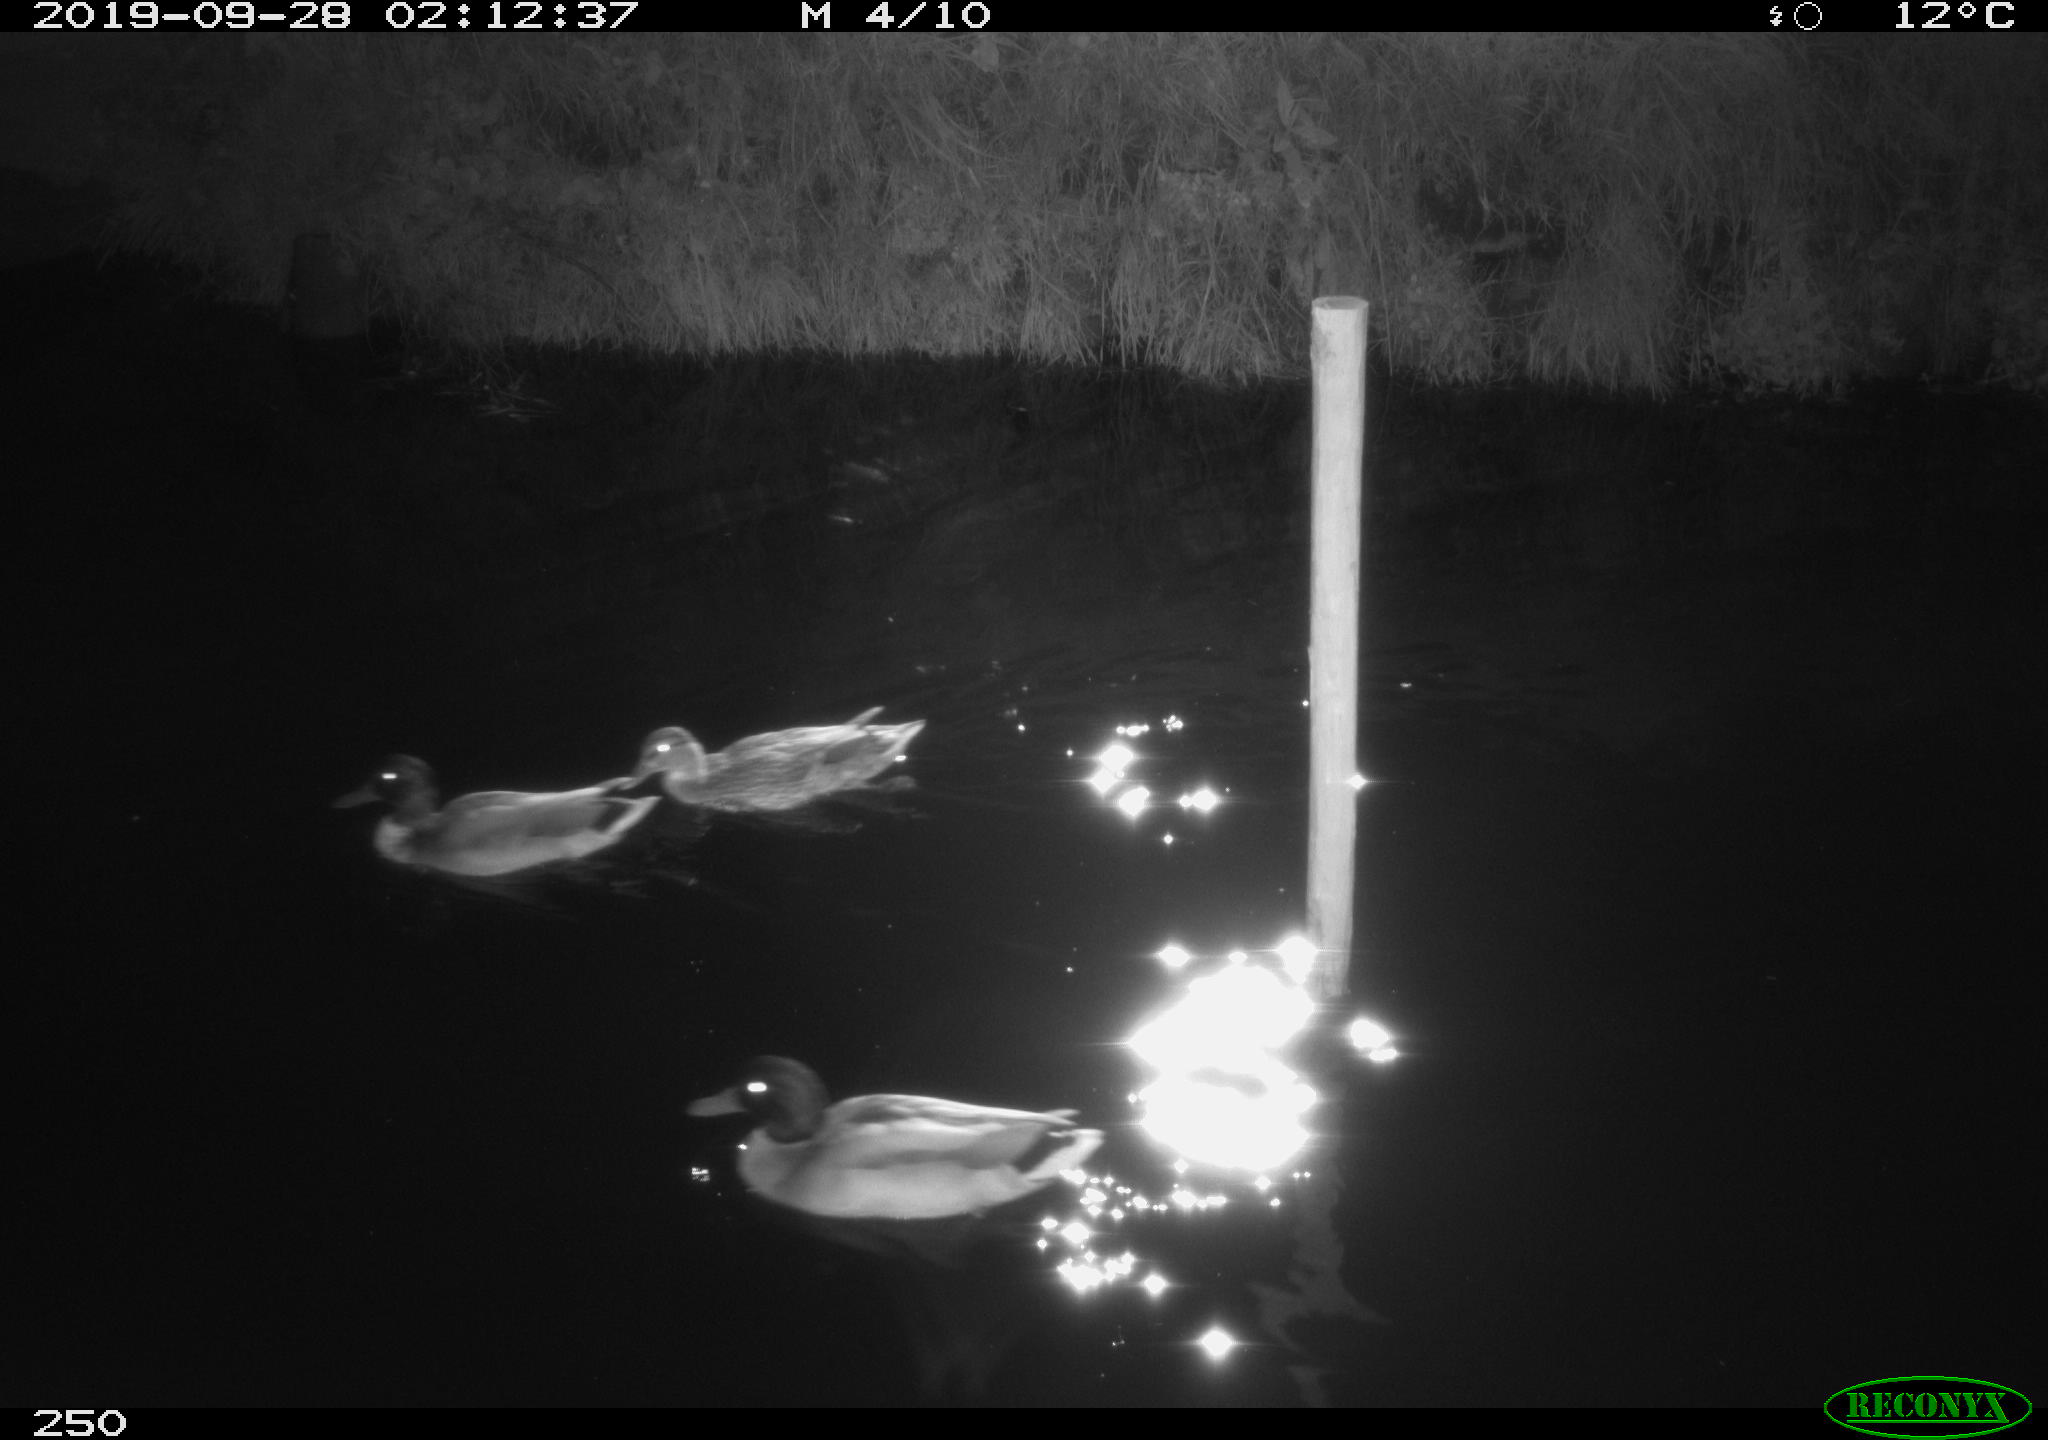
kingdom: Animalia
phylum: Chordata
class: Aves
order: Anseriformes
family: Anatidae
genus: Anas
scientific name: Anas platyrhynchos
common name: Mallard
